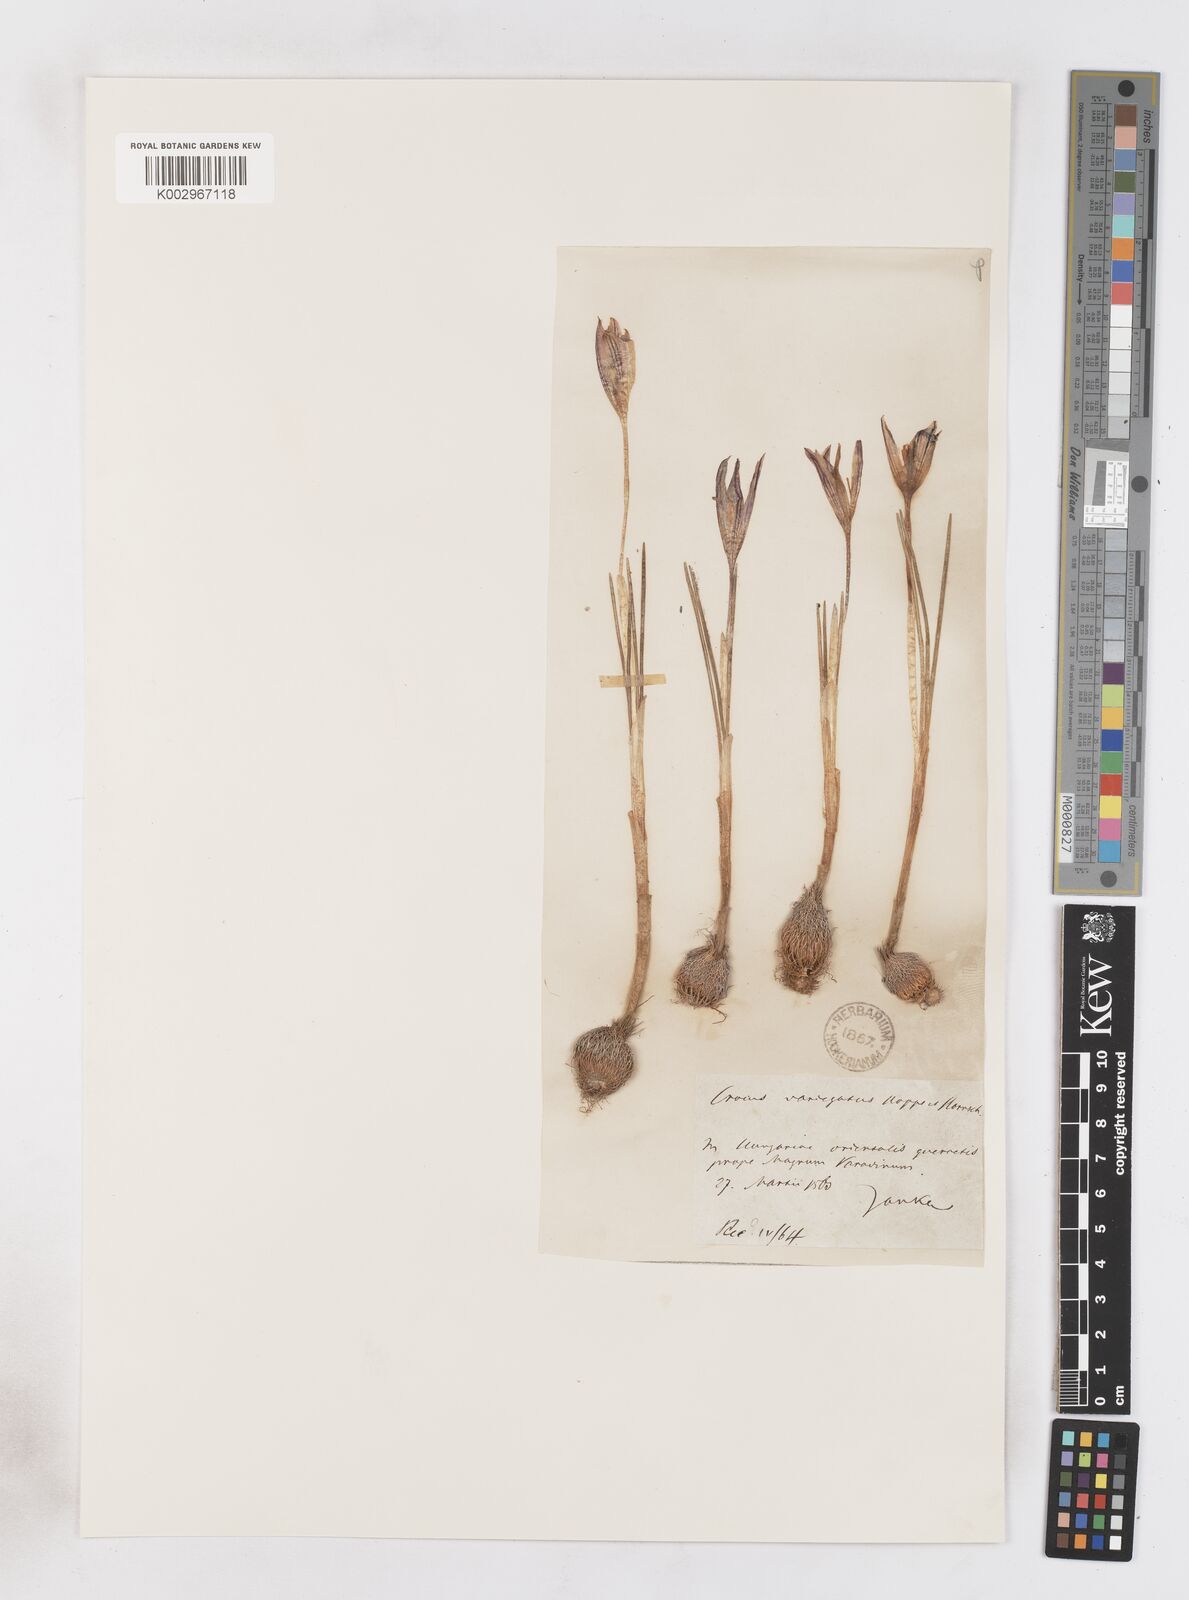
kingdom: Plantae
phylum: Tracheophyta
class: Liliopsida
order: Asparagales
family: Iridaceae
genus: Crocus
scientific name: Crocus reticulatus
